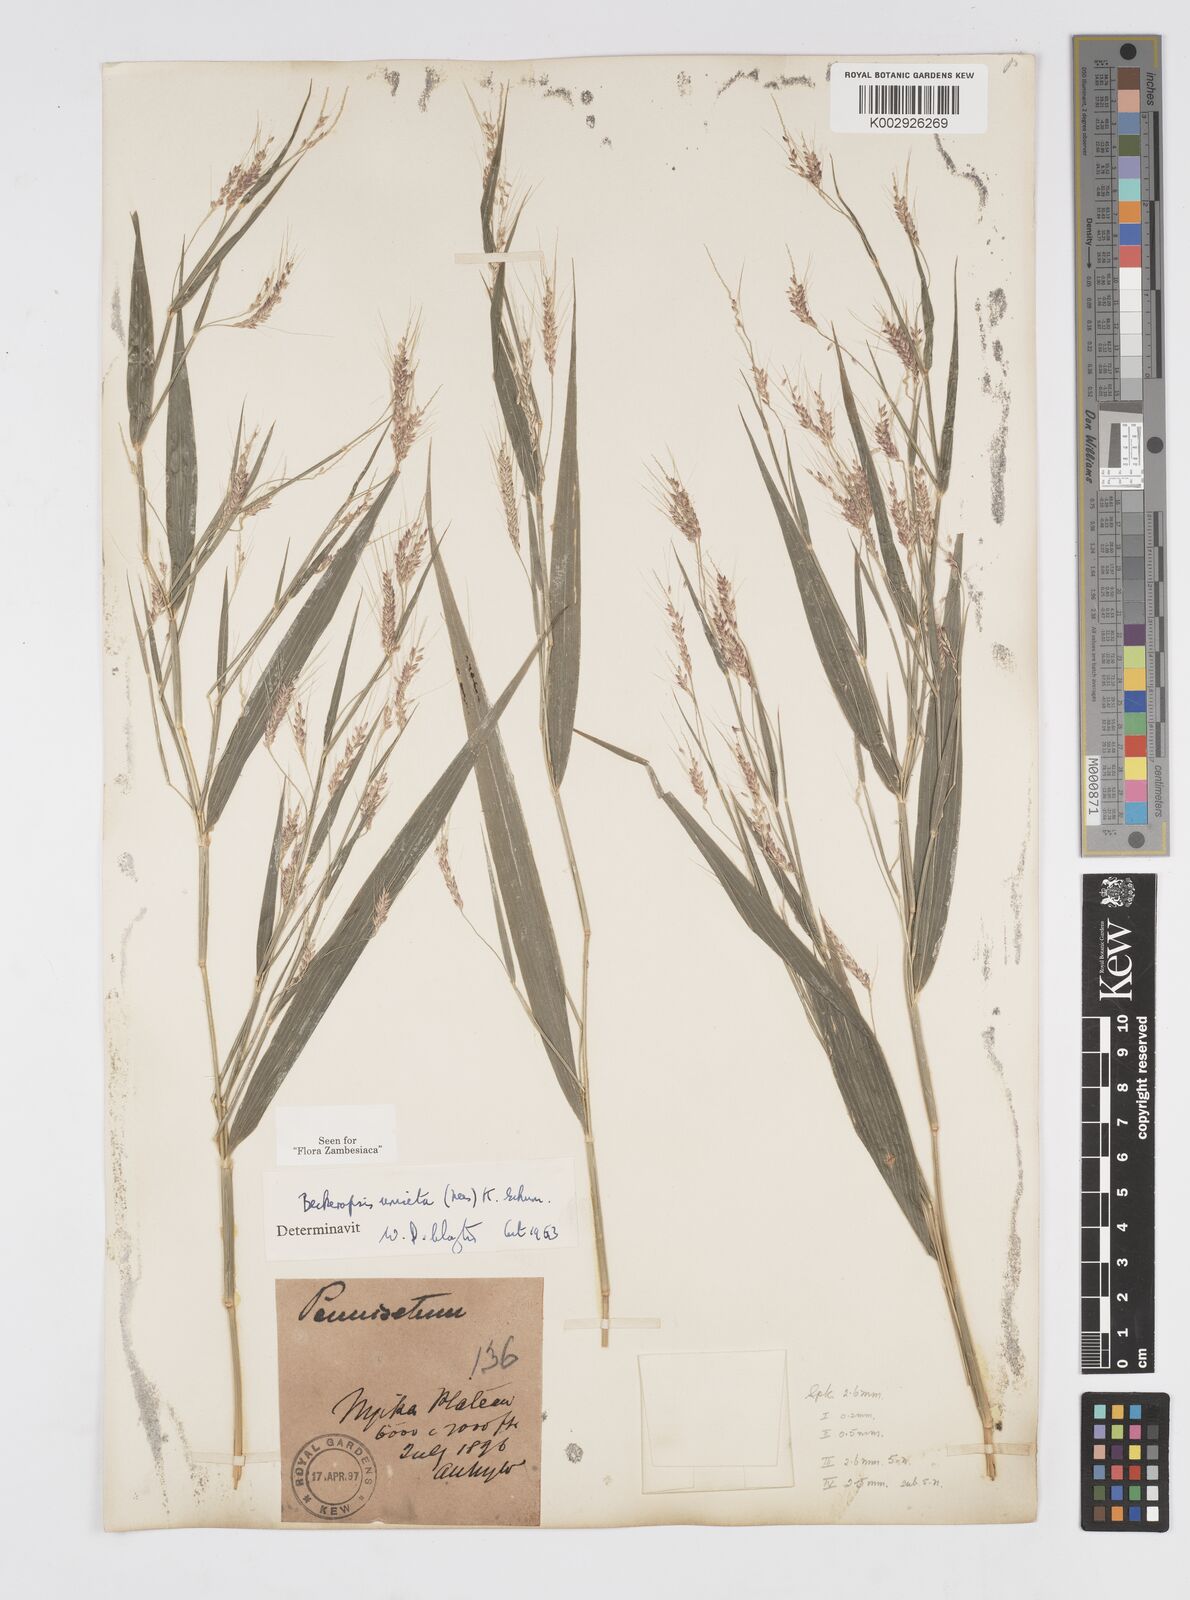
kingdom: Plantae
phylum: Tracheophyta
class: Liliopsida
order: Poales
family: Poaceae
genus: Cenchrus
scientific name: Cenchrus unisetus
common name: Natal grass
